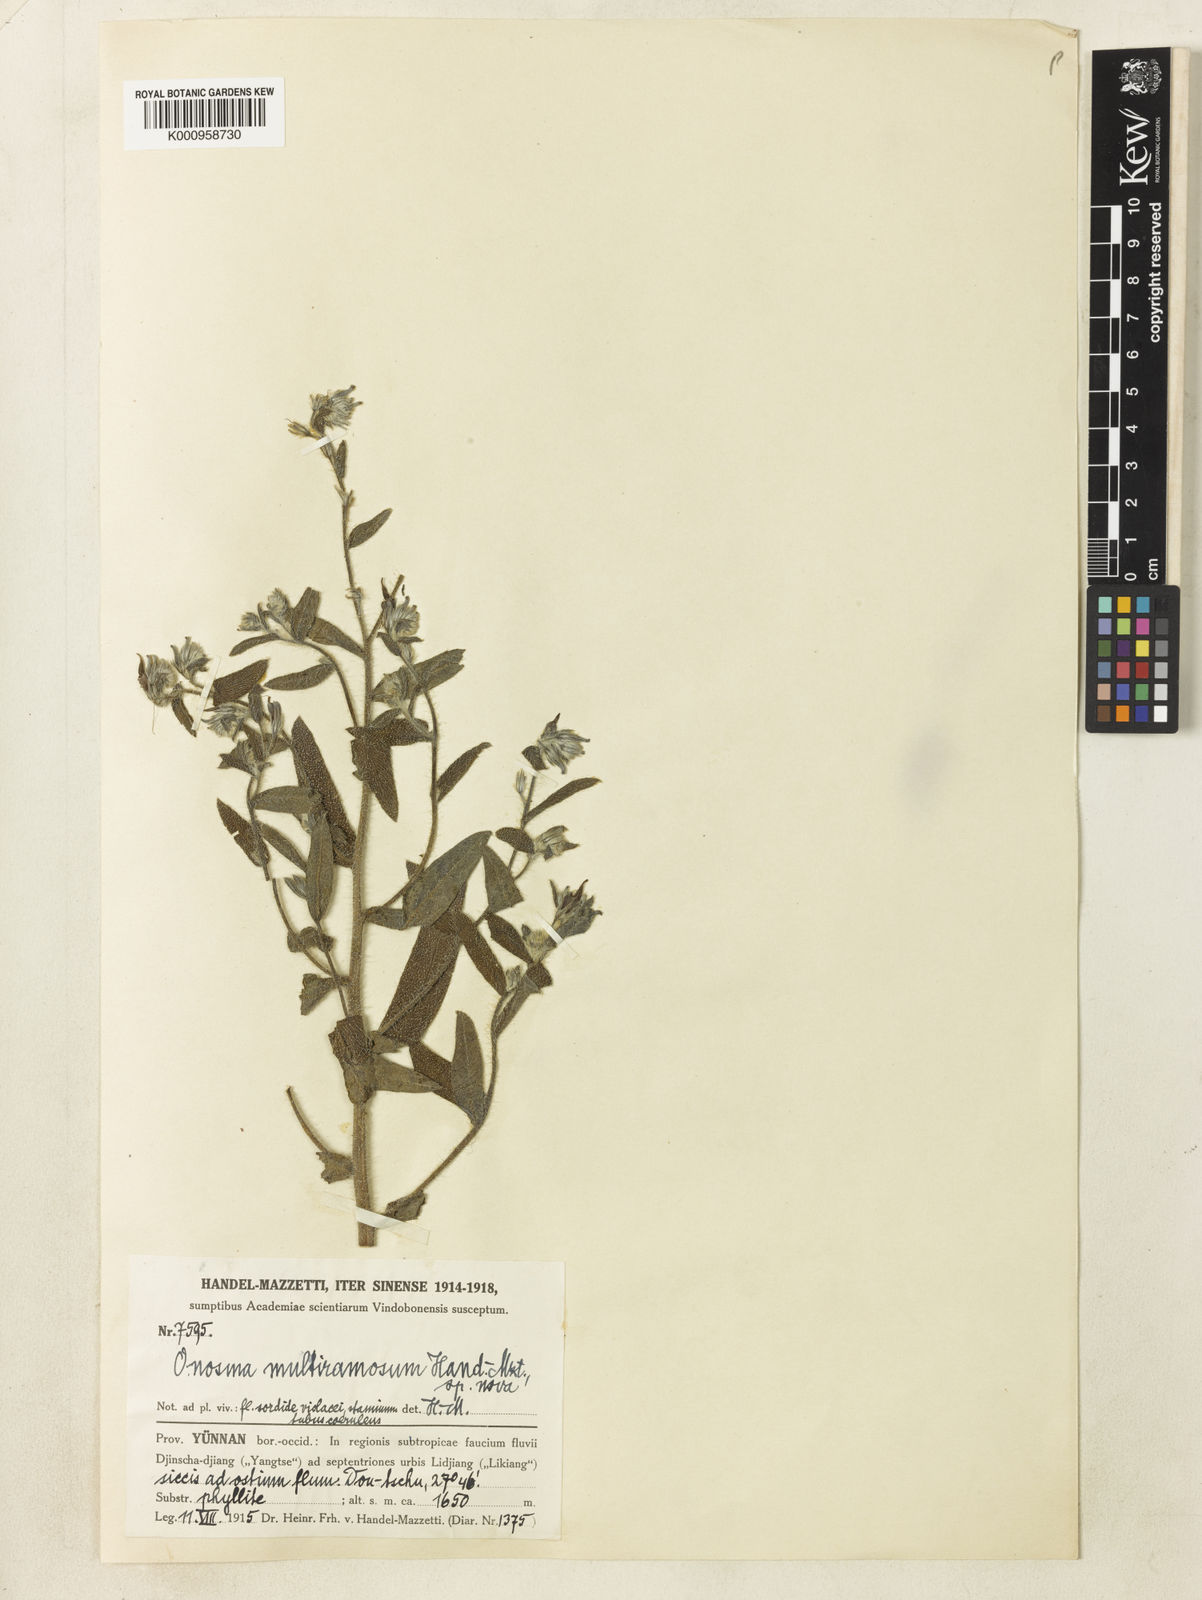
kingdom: Plantae
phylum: Tracheophyta
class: Magnoliopsida
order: Boraginales
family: Boraginaceae
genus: Maharanga
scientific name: Maharanga multiramosa
